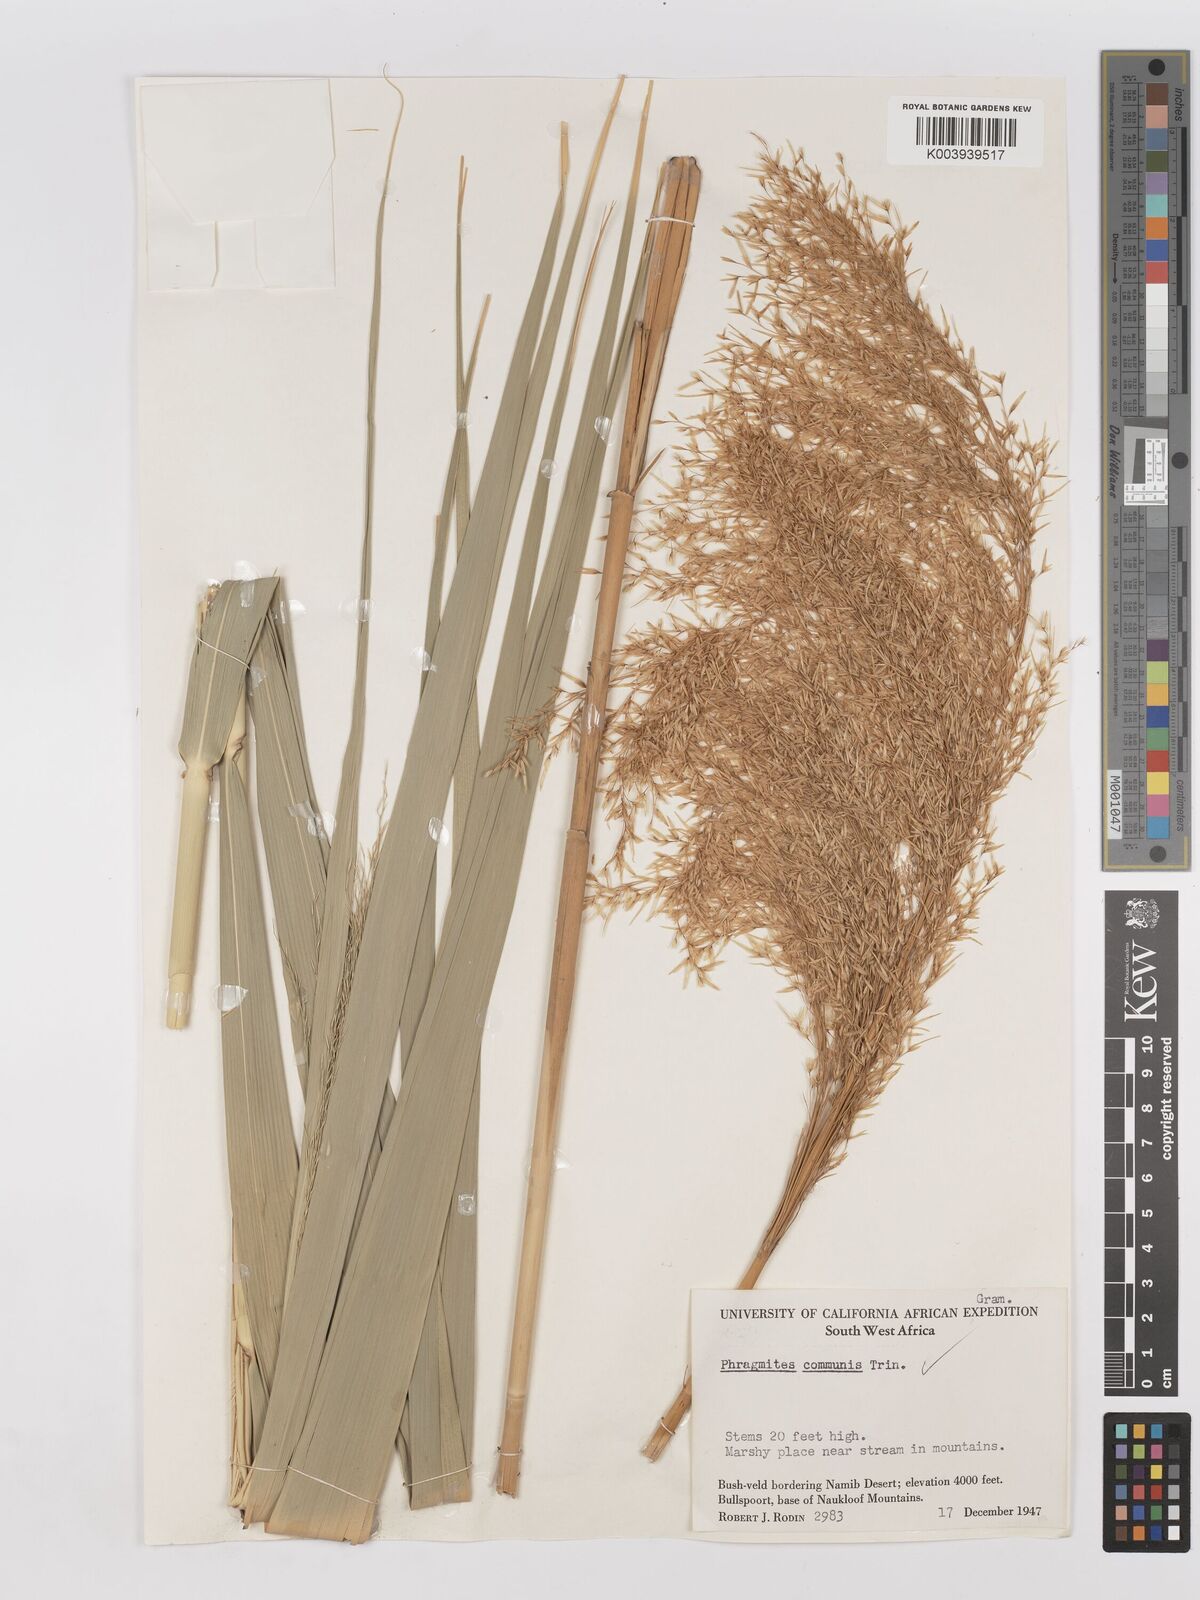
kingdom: Plantae
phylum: Tracheophyta
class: Liliopsida
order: Poales
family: Poaceae
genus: Phragmites
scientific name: Phragmites australis
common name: Common reed
